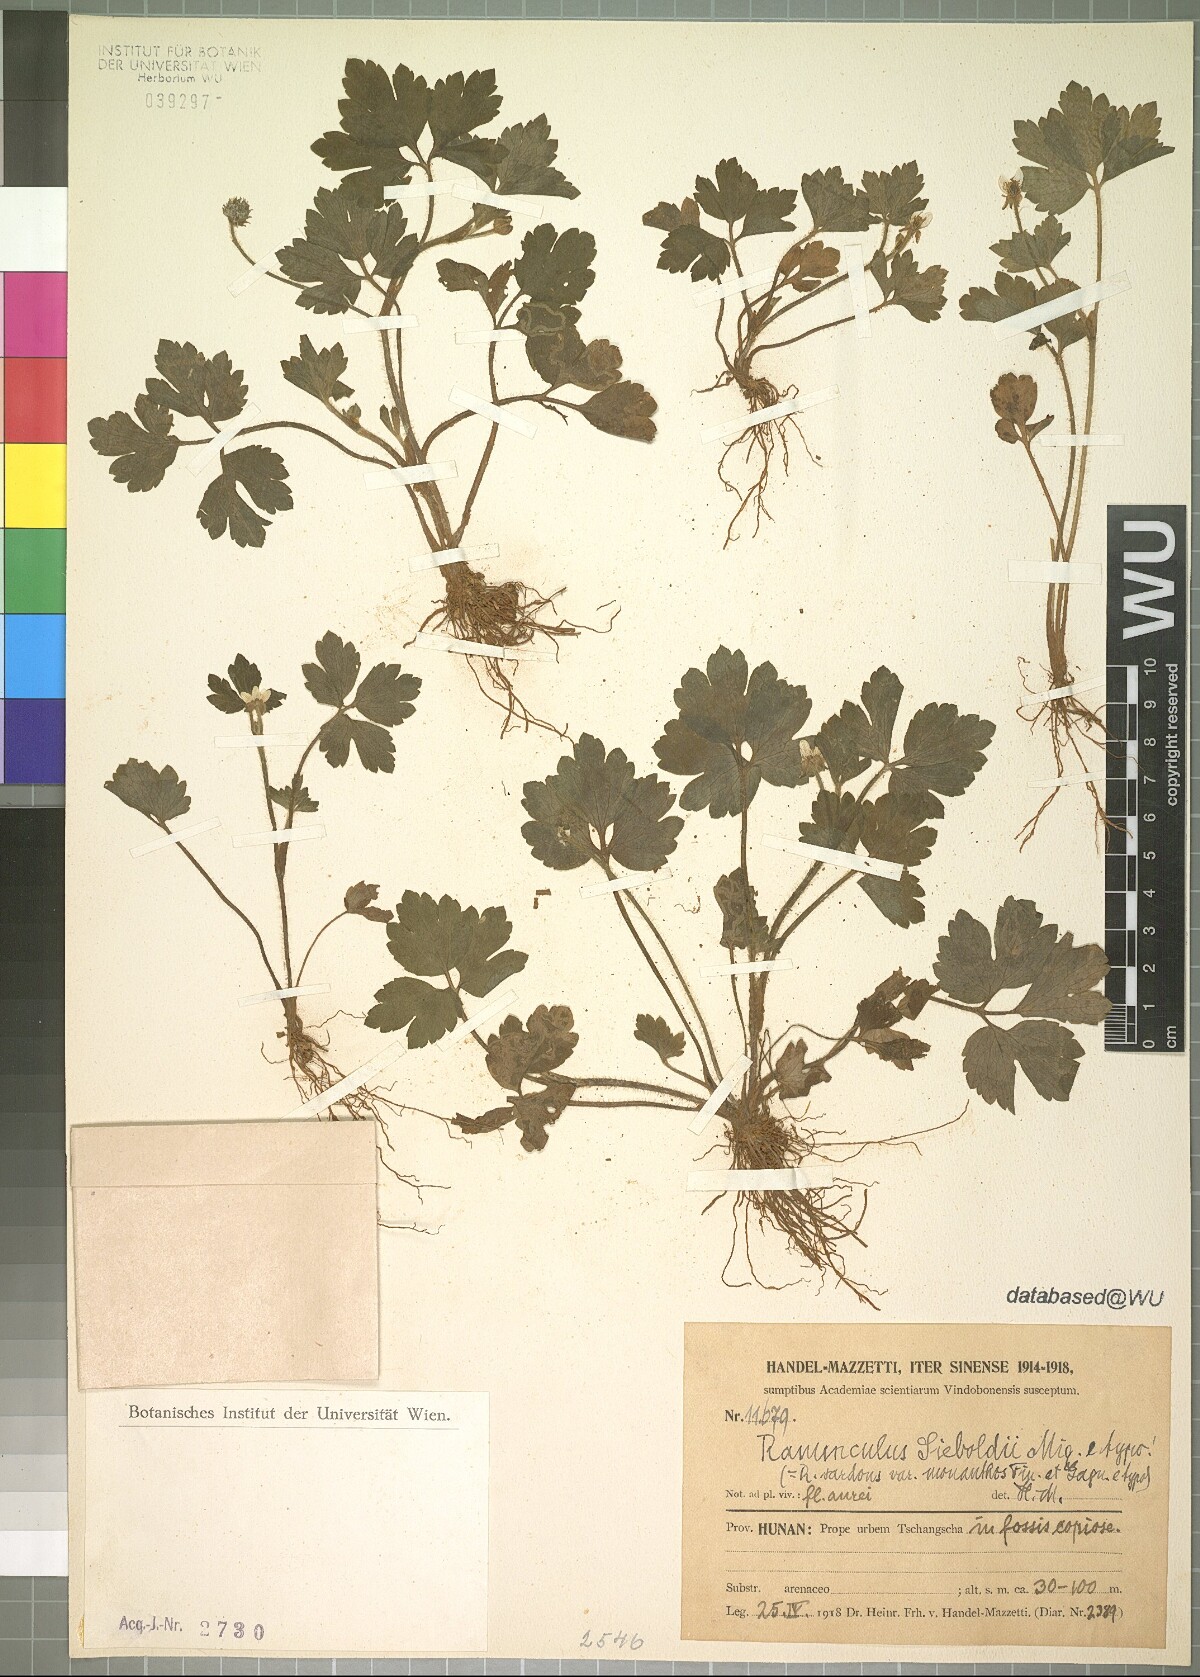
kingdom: Plantae
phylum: Tracheophyta
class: Magnoliopsida
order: Ranunculales
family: Ranunculaceae
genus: Ranunculus
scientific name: Ranunculus sieboldii
